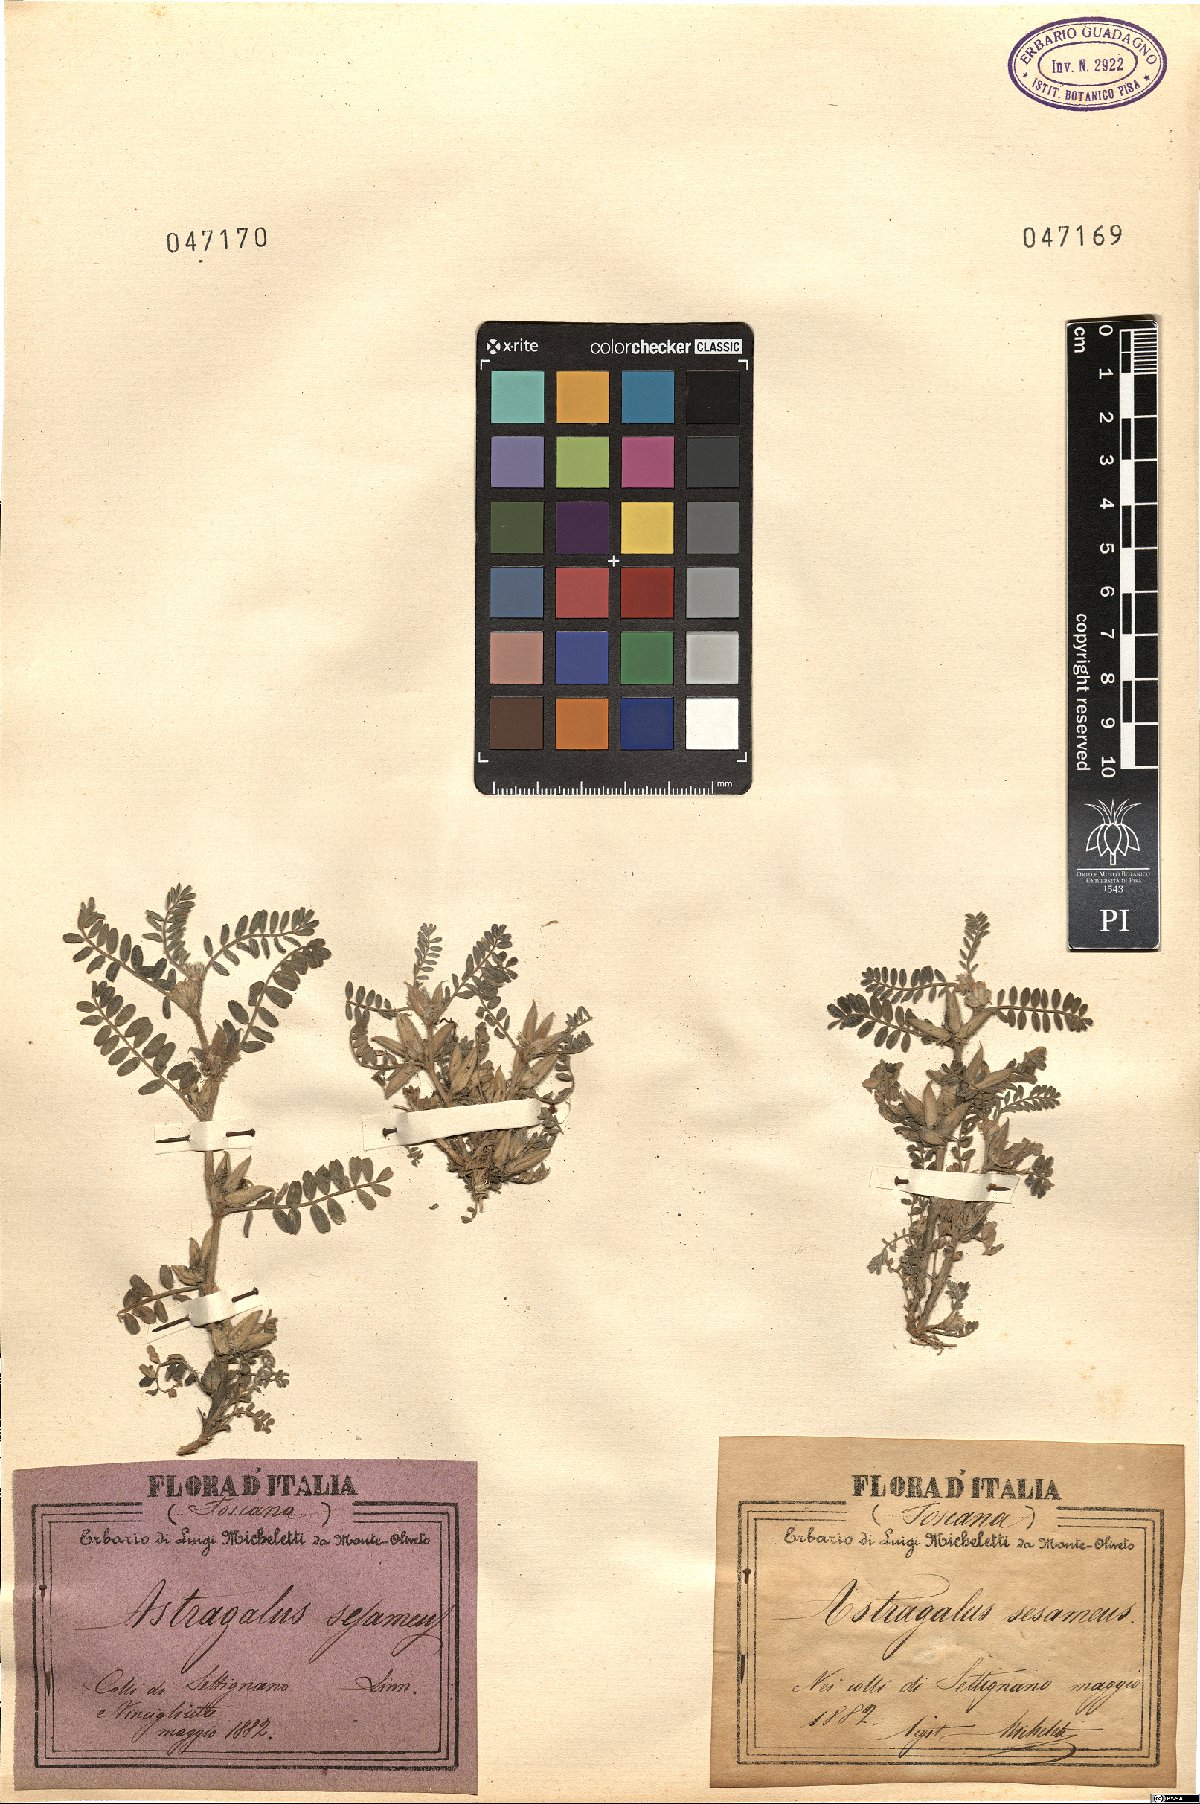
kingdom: Plantae
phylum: Tracheophyta
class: Magnoliopsida
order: Fabales
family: Fabaceae
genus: Astragalus
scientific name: Astragalus sesameus
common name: Purple milk-vetch
